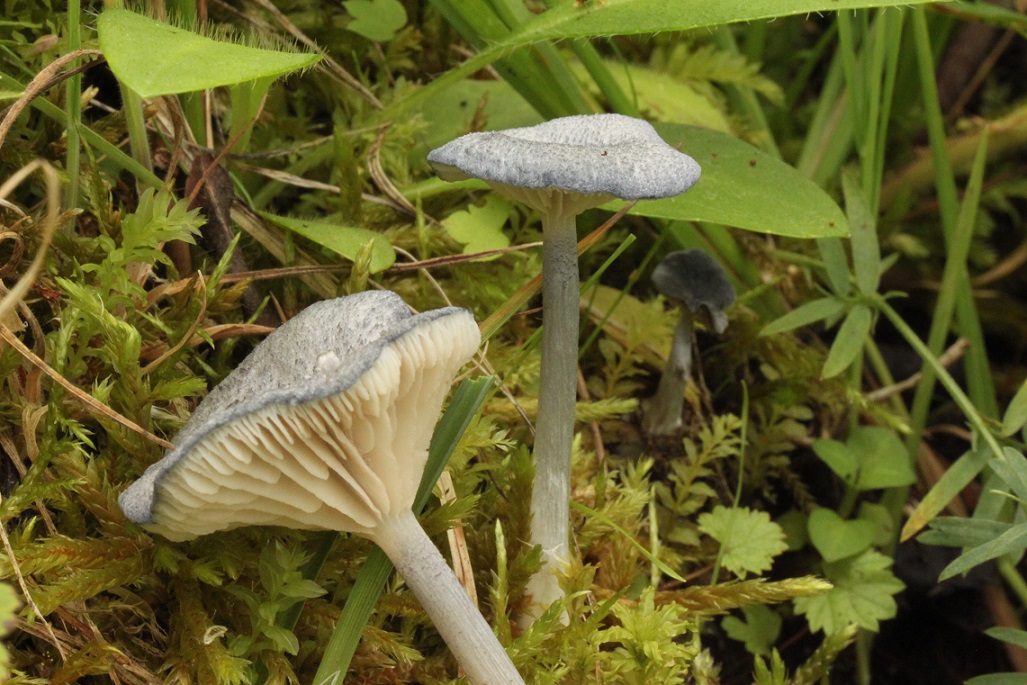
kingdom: Fungi
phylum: Basidiomycota
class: Agaricomycetes
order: Agaricales
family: Entolomataceae
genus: Entoloma
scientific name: Entoloma mougeotii
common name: violetgrå rødblad
